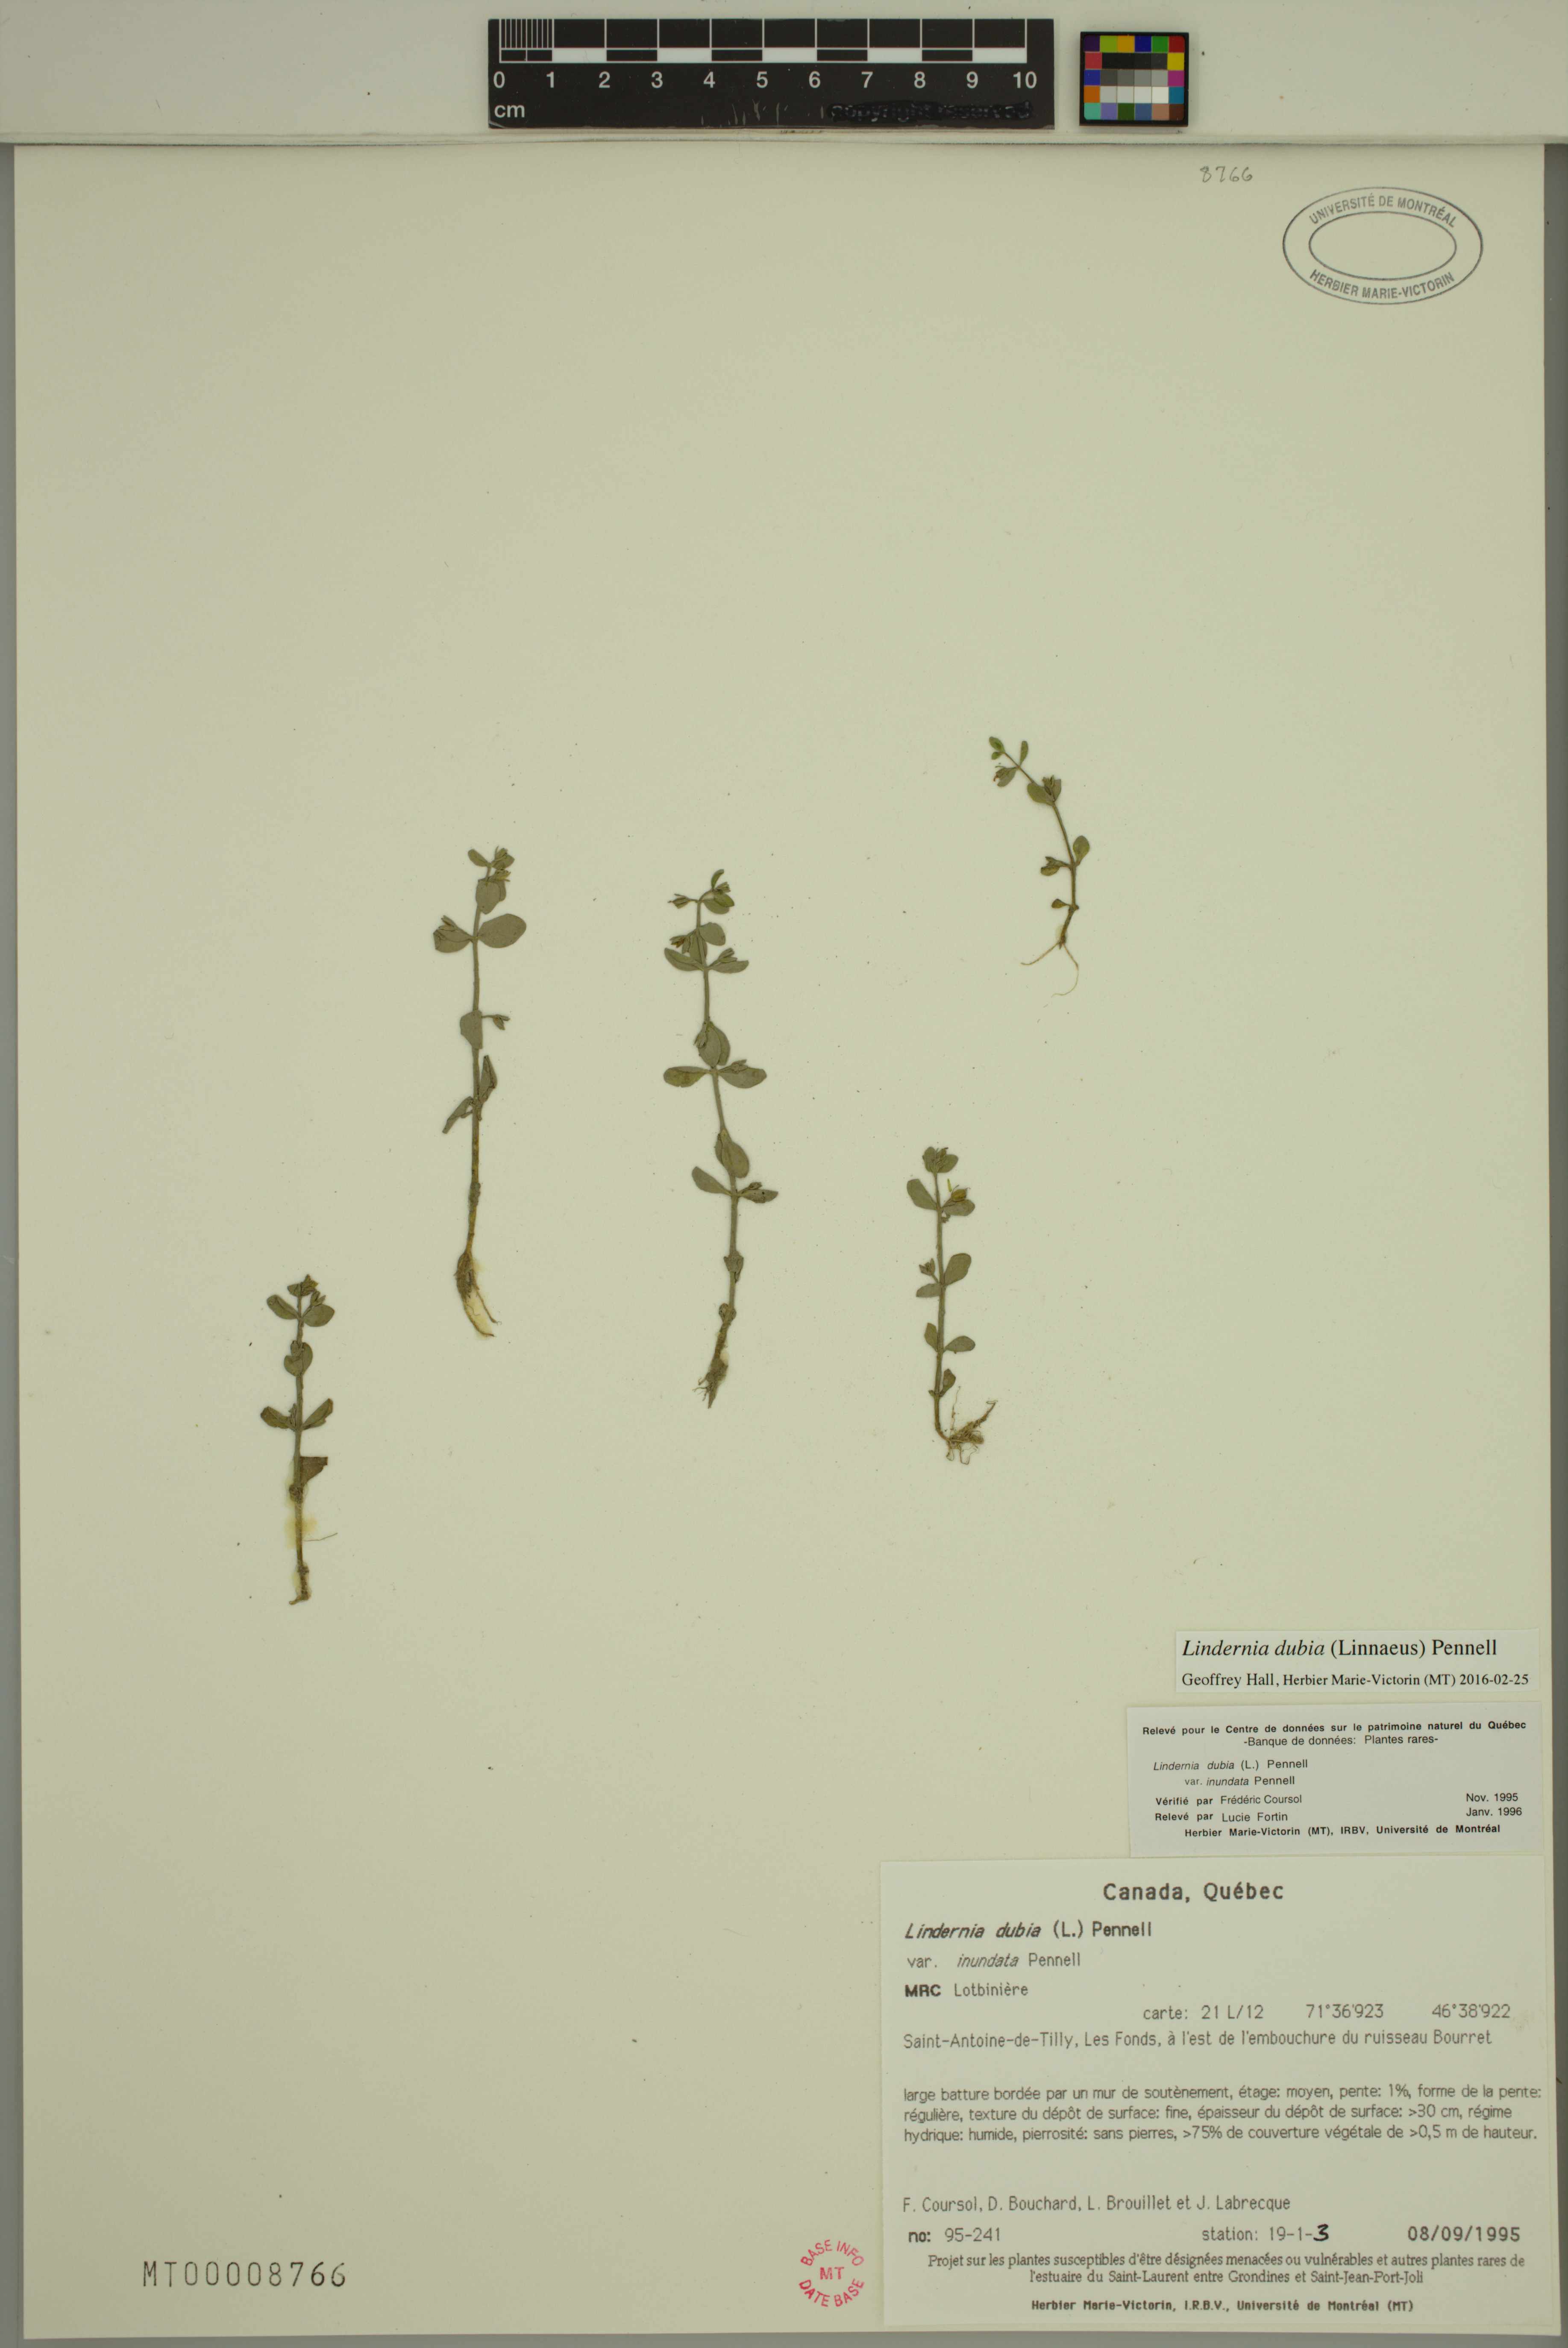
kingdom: Plantae
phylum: Tracheophyta
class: Magnoliopsida
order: Lamiales
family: Linderniaceae
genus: Lindernia
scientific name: Lindernia dubia
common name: Annual false pimpernel
